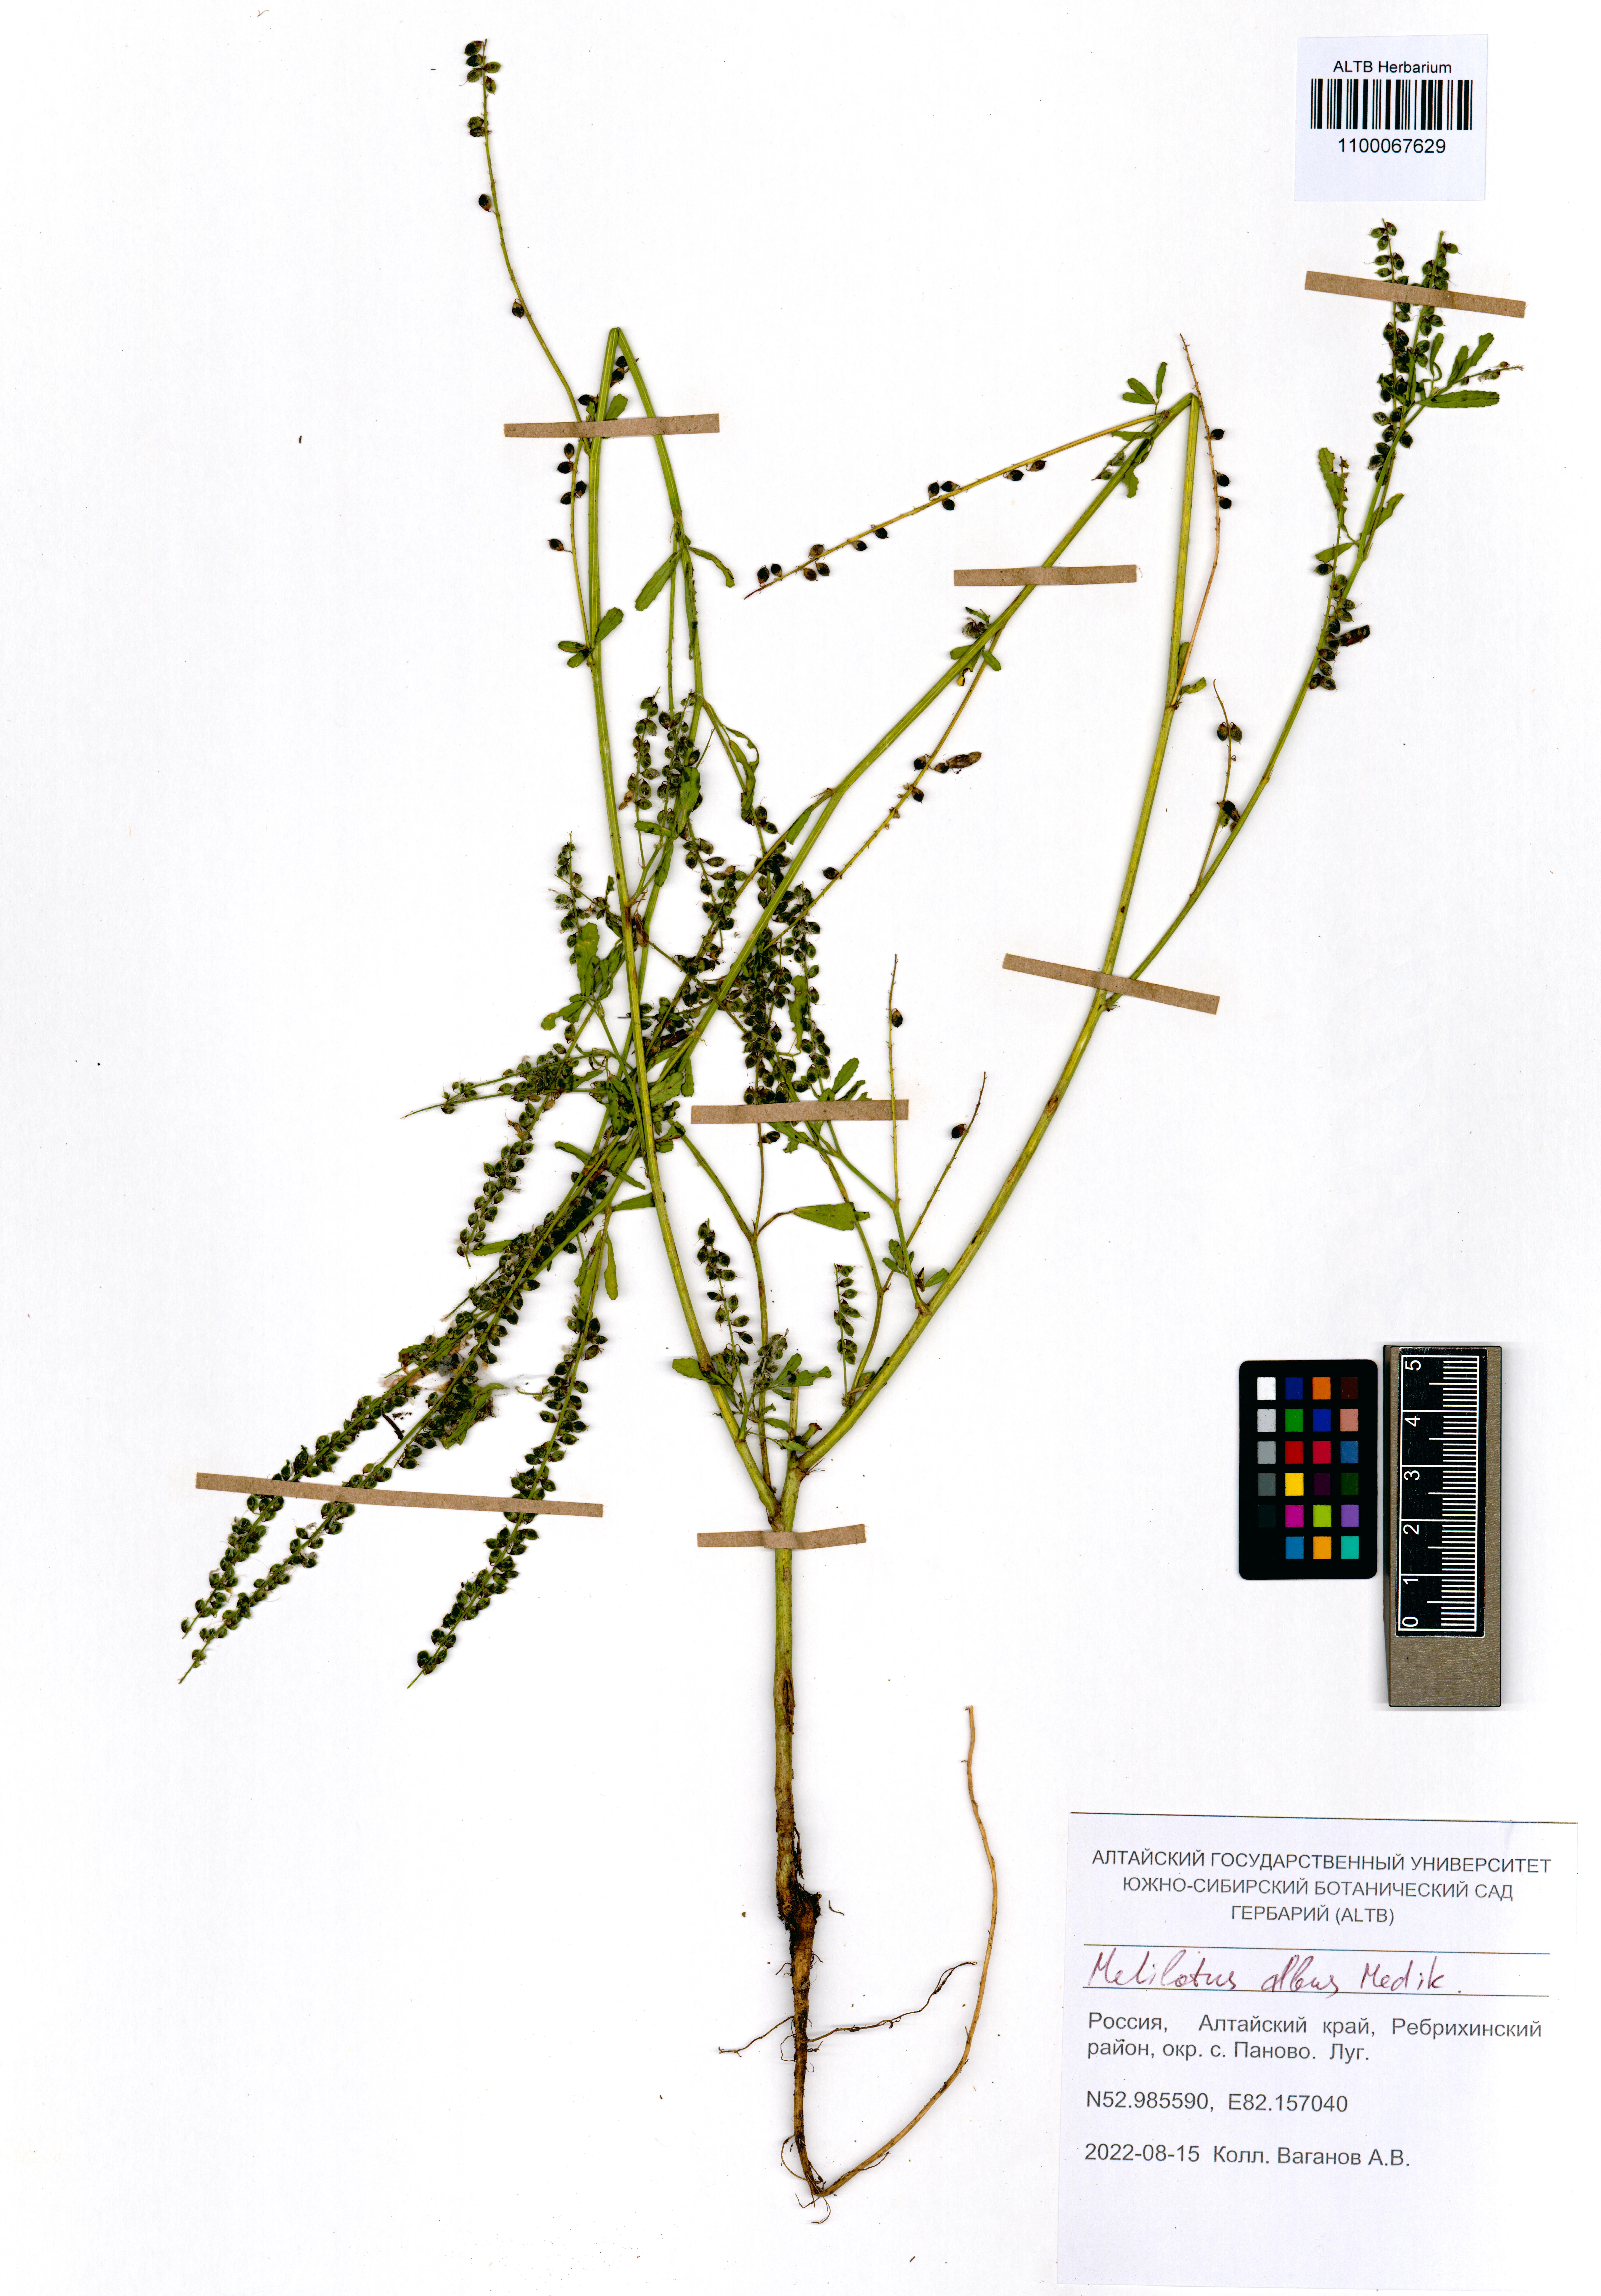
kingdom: Plantae
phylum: Tracheophyta
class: Magnoliopsida
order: Fabales
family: Fabaceae
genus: Melilotus
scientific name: Melilotus albus
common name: White melilot
